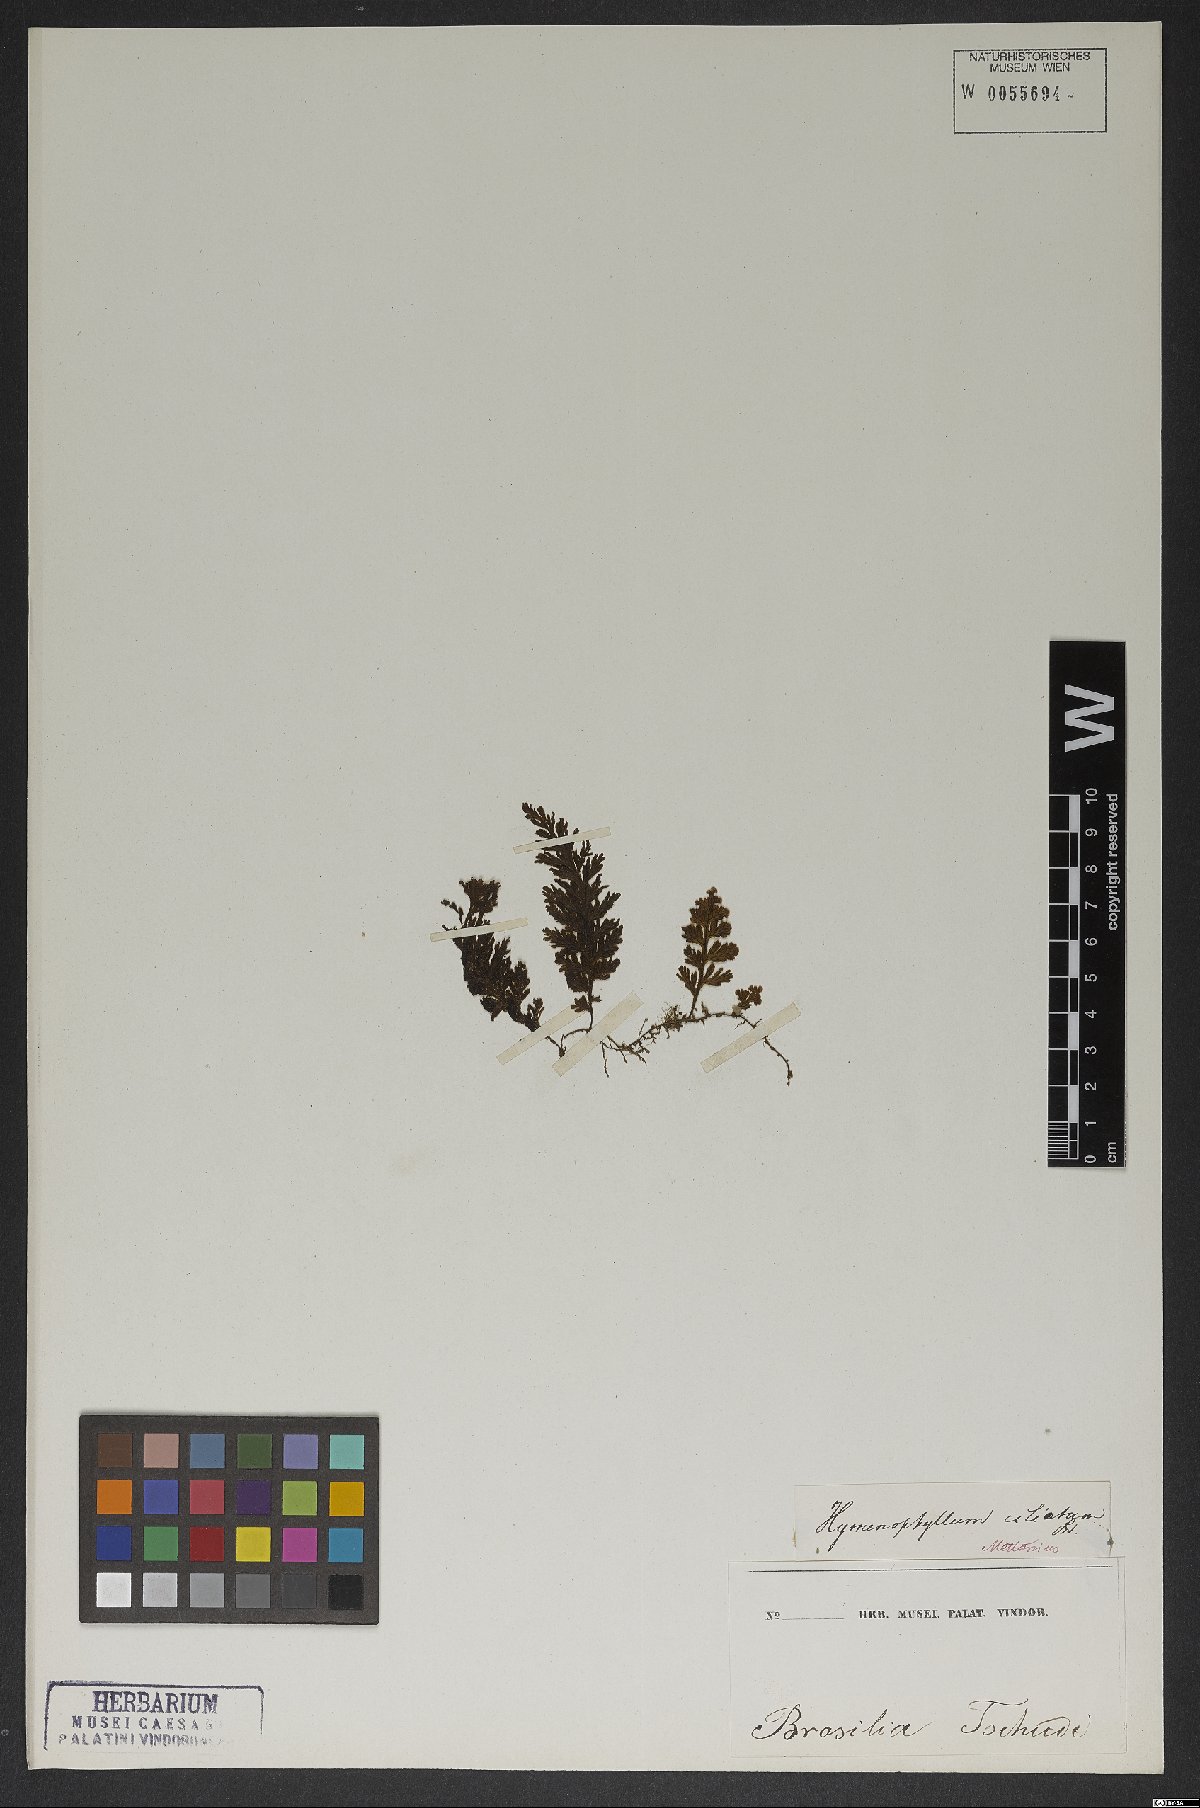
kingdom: Plantae
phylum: Tracheophyta
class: Polypodiopsida
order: Hymenophyllales
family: Hymenophyllaceae
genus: Hymenophyllum
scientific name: Hymenophyllum asplenioides
